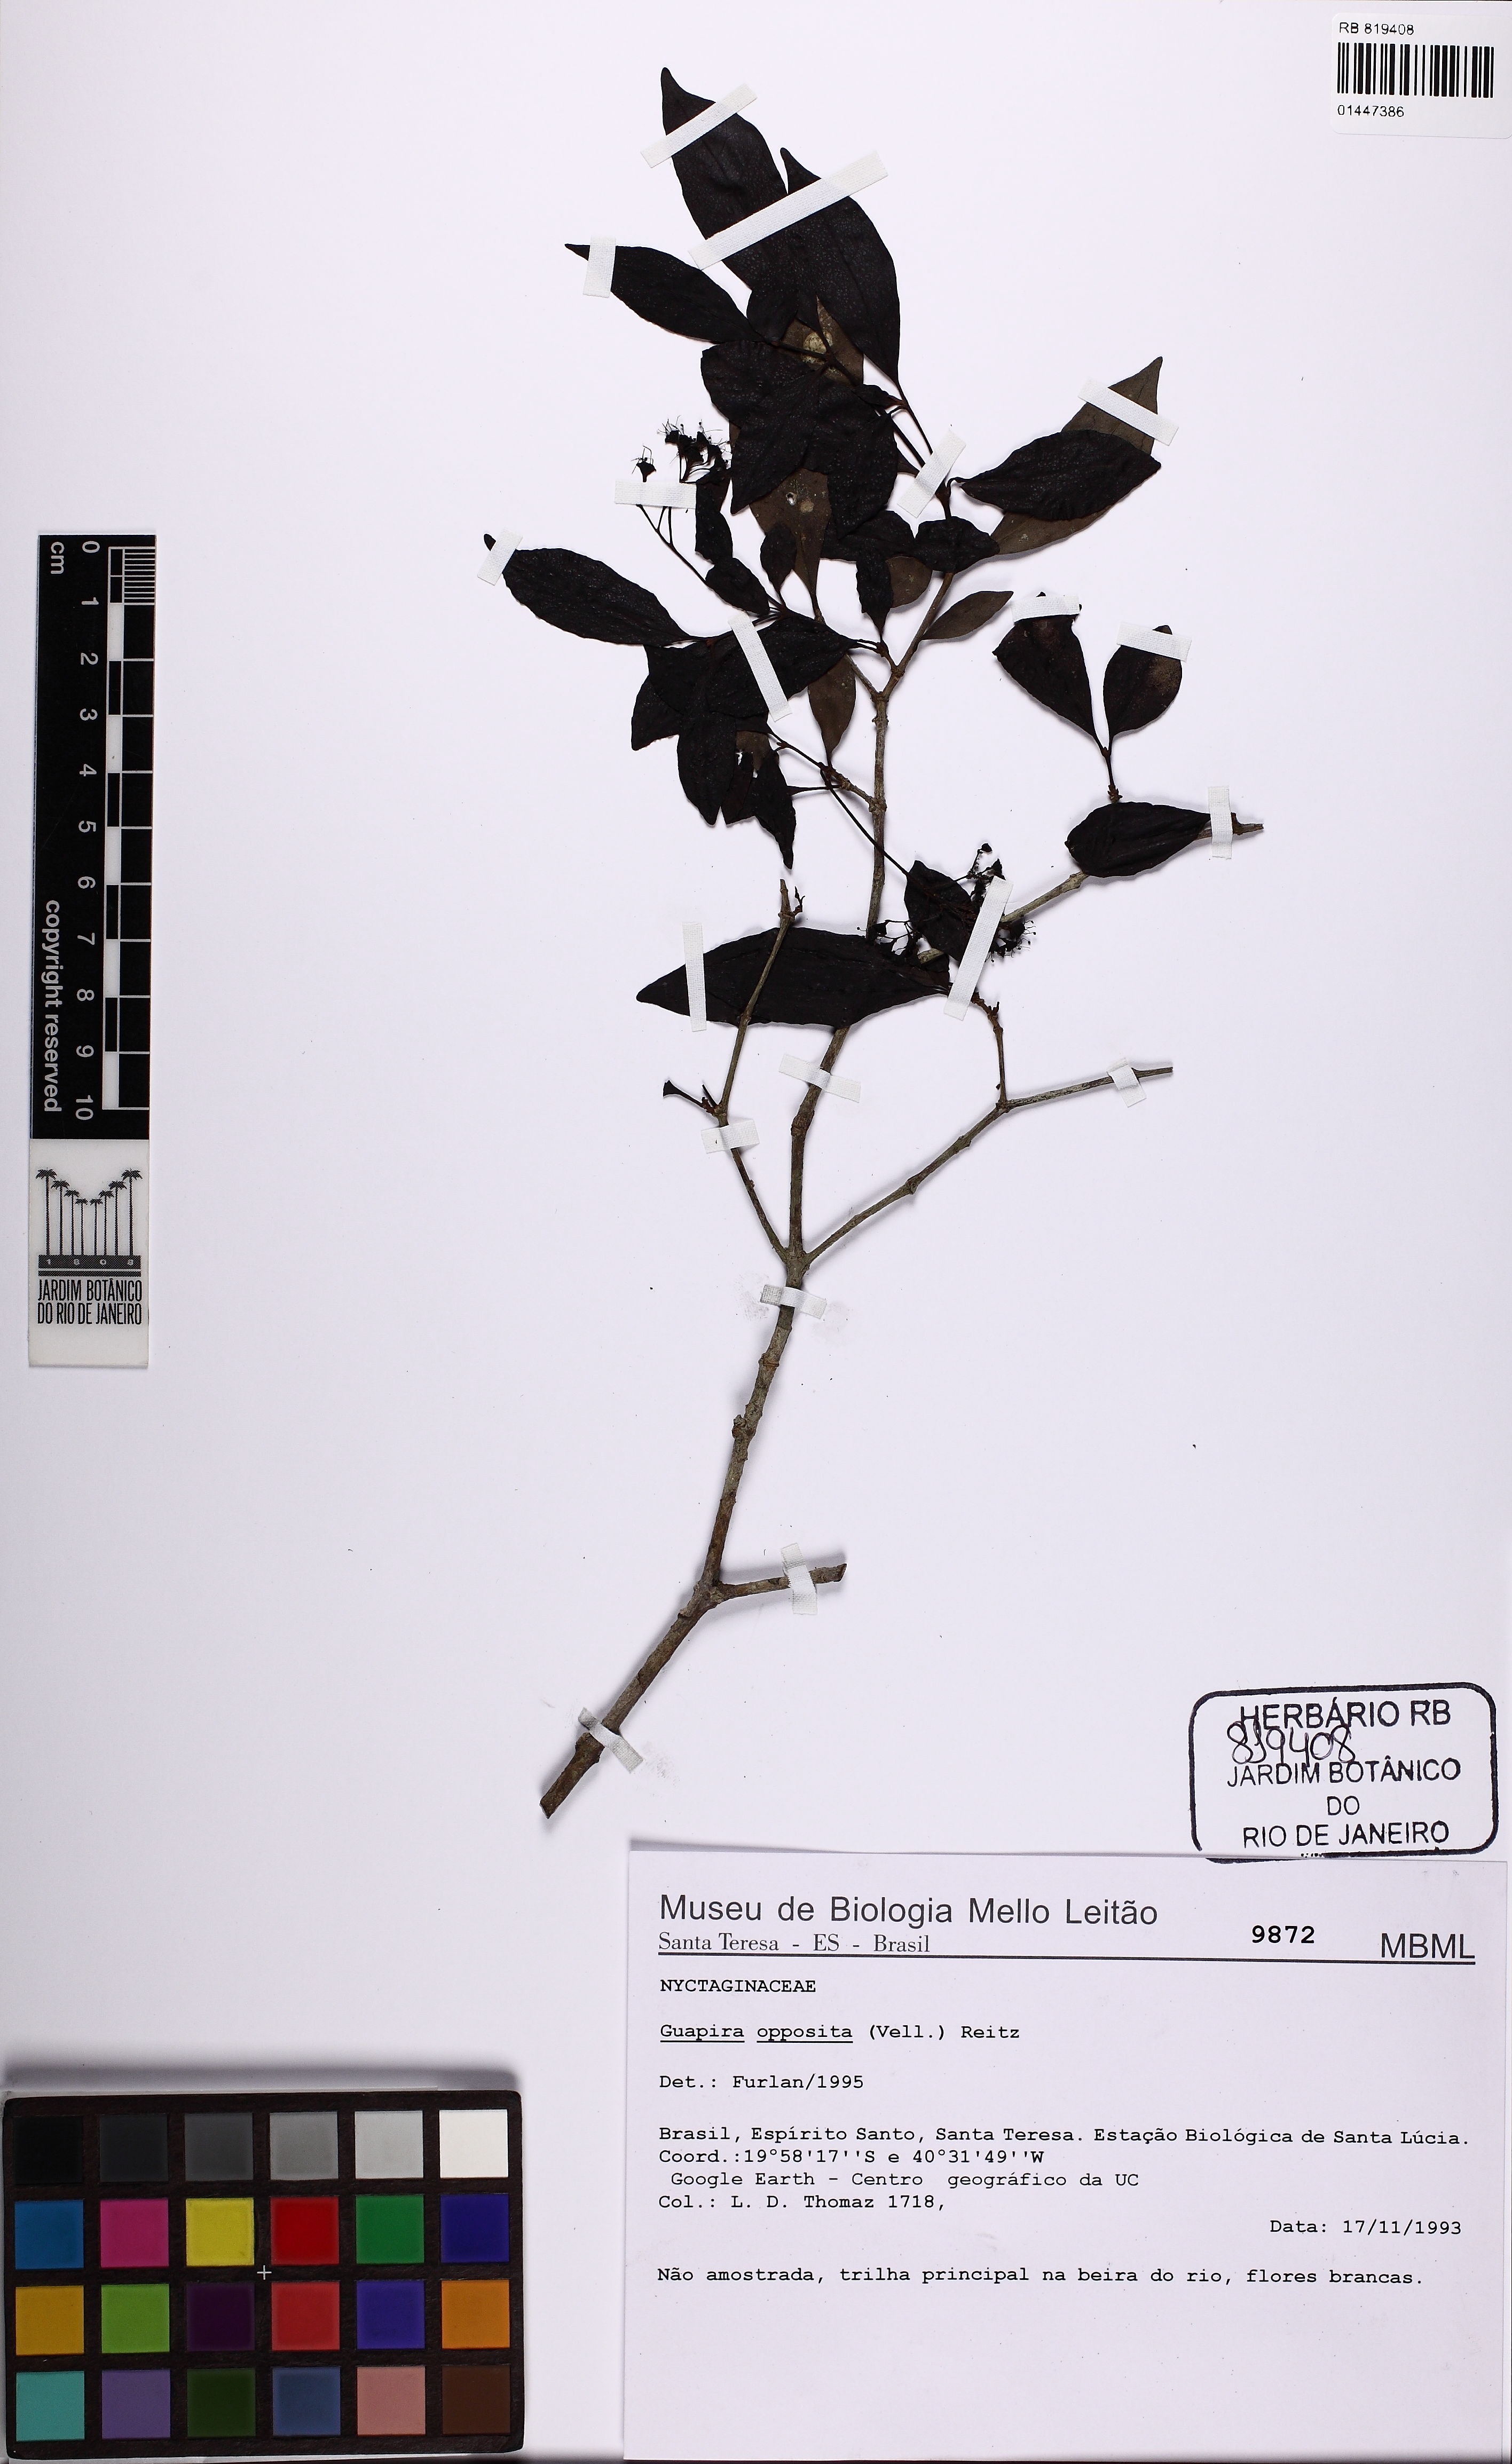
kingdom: Plantae
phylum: Tracheophyta
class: Magnoliopsida
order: Caryophyllales
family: Nyctaginaceae
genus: Guapira
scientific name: Guapira opposita
